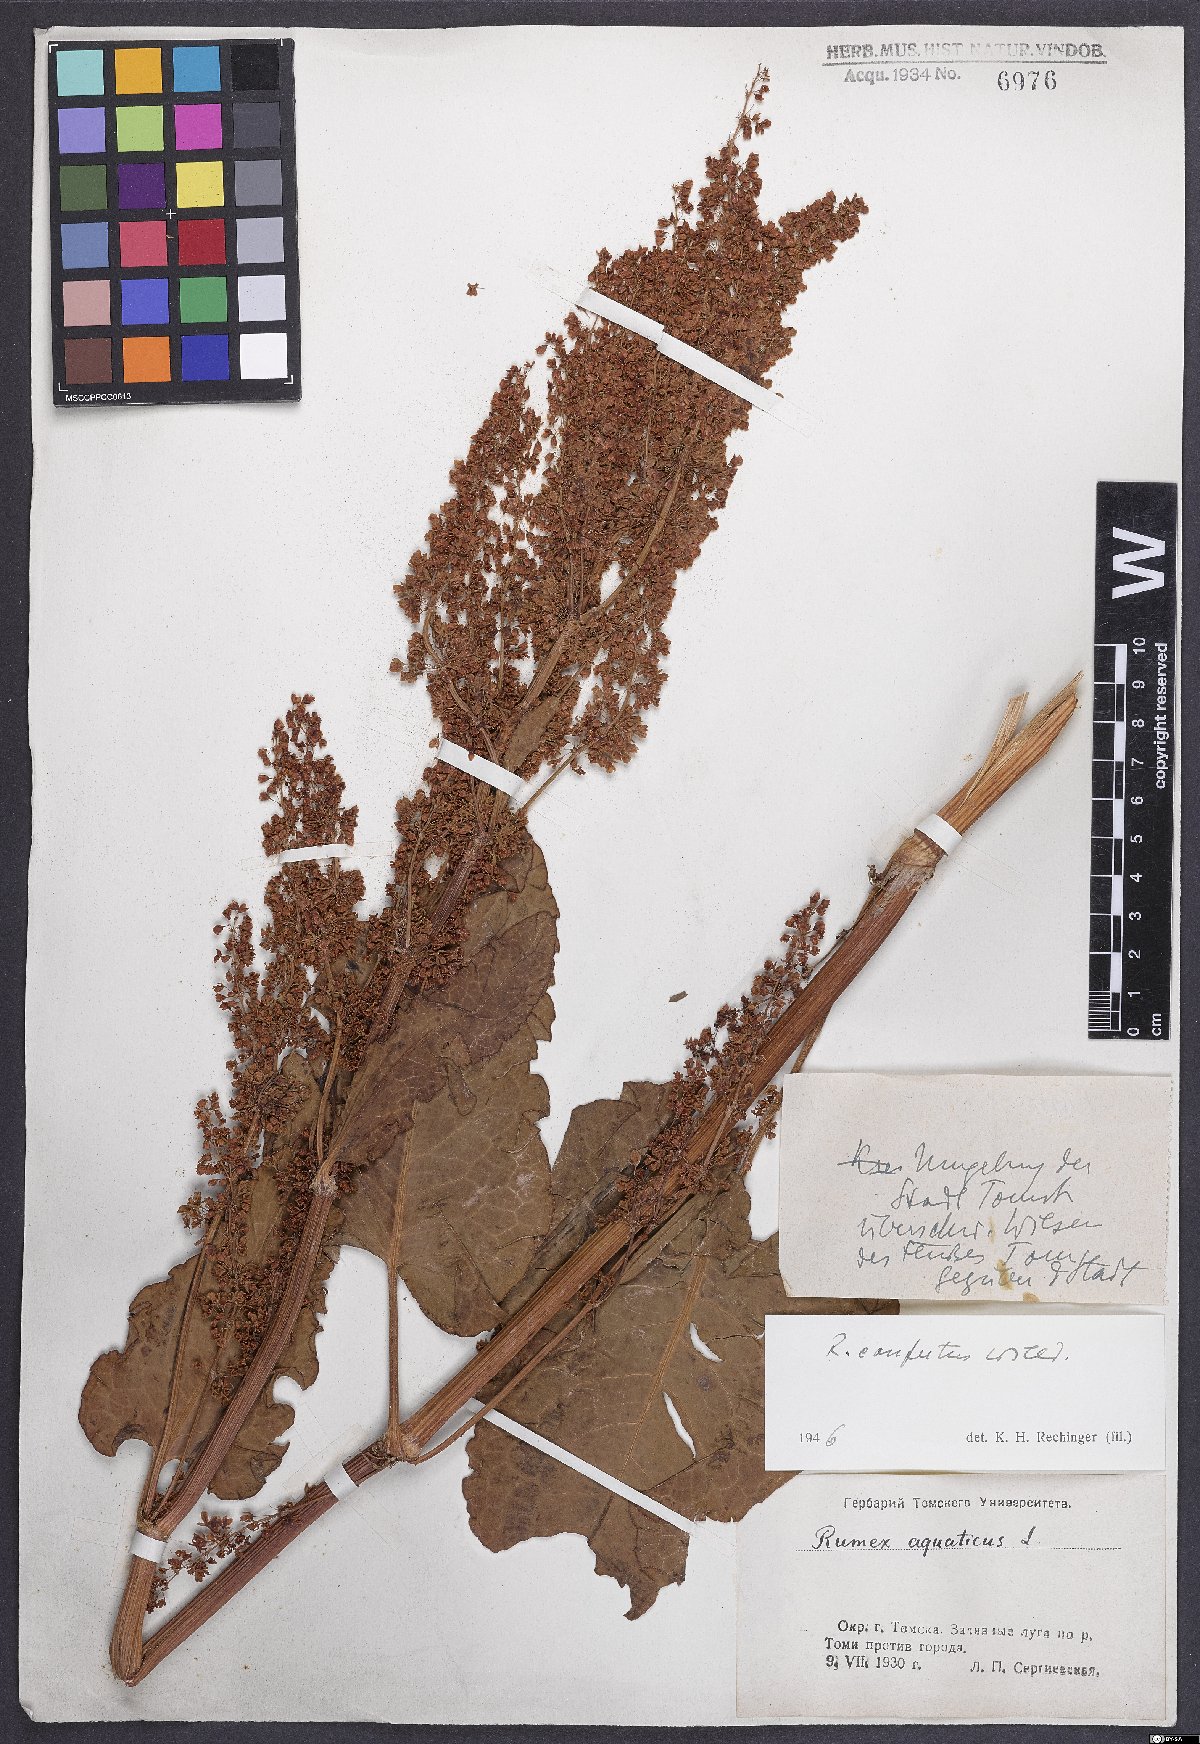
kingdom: Plantae
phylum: Tracheophyta
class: Magnoliopsida
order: Caryophyllales
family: Polygonaceae
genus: Rumex
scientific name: Rumex confertus
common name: Russian dock
